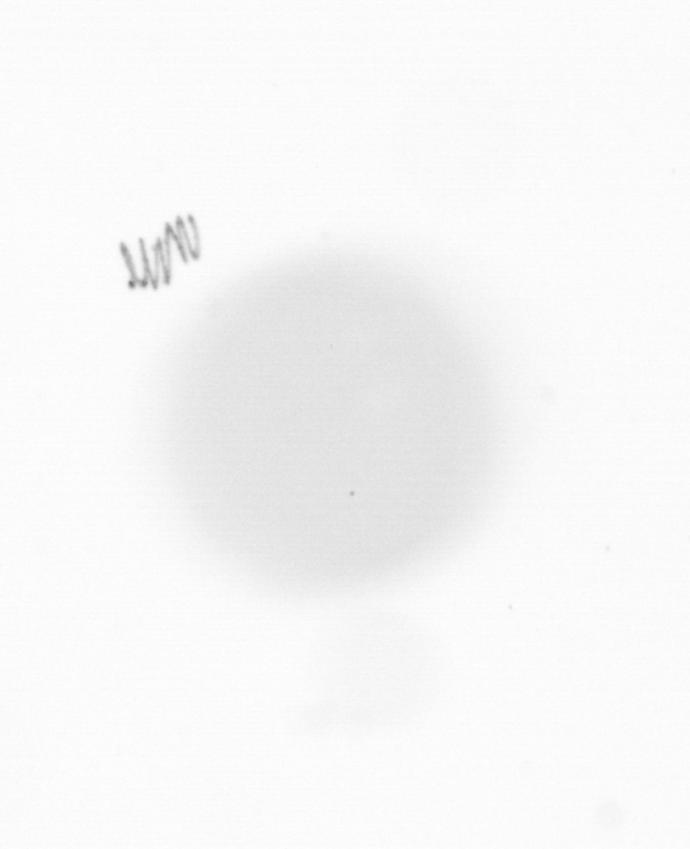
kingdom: Chromista
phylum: Ochrophyta
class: Bacillariophyceae
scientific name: Bacillariophyceae
